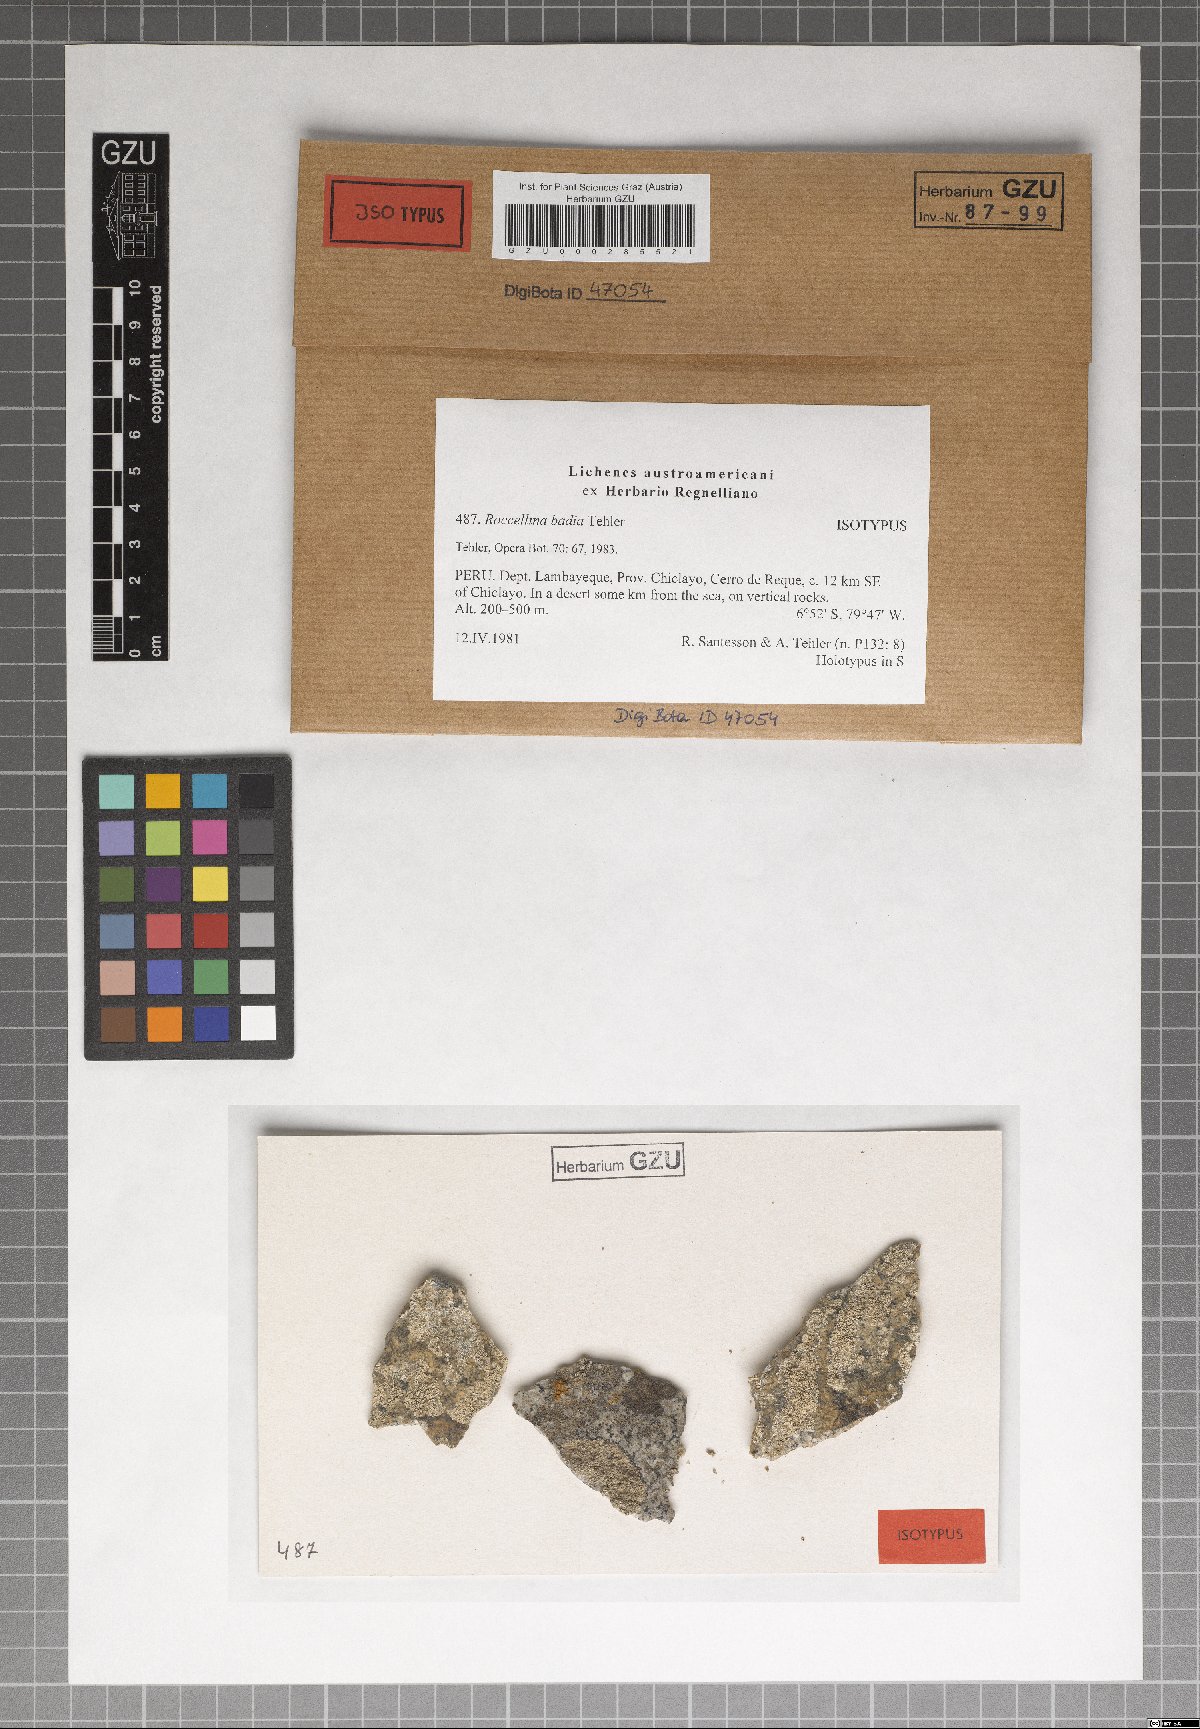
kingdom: Fungi
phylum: Ascomycota
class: Arthoniomycetes
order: Arthoniales
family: Roccellaceae
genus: Dirina
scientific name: Dirina badia
